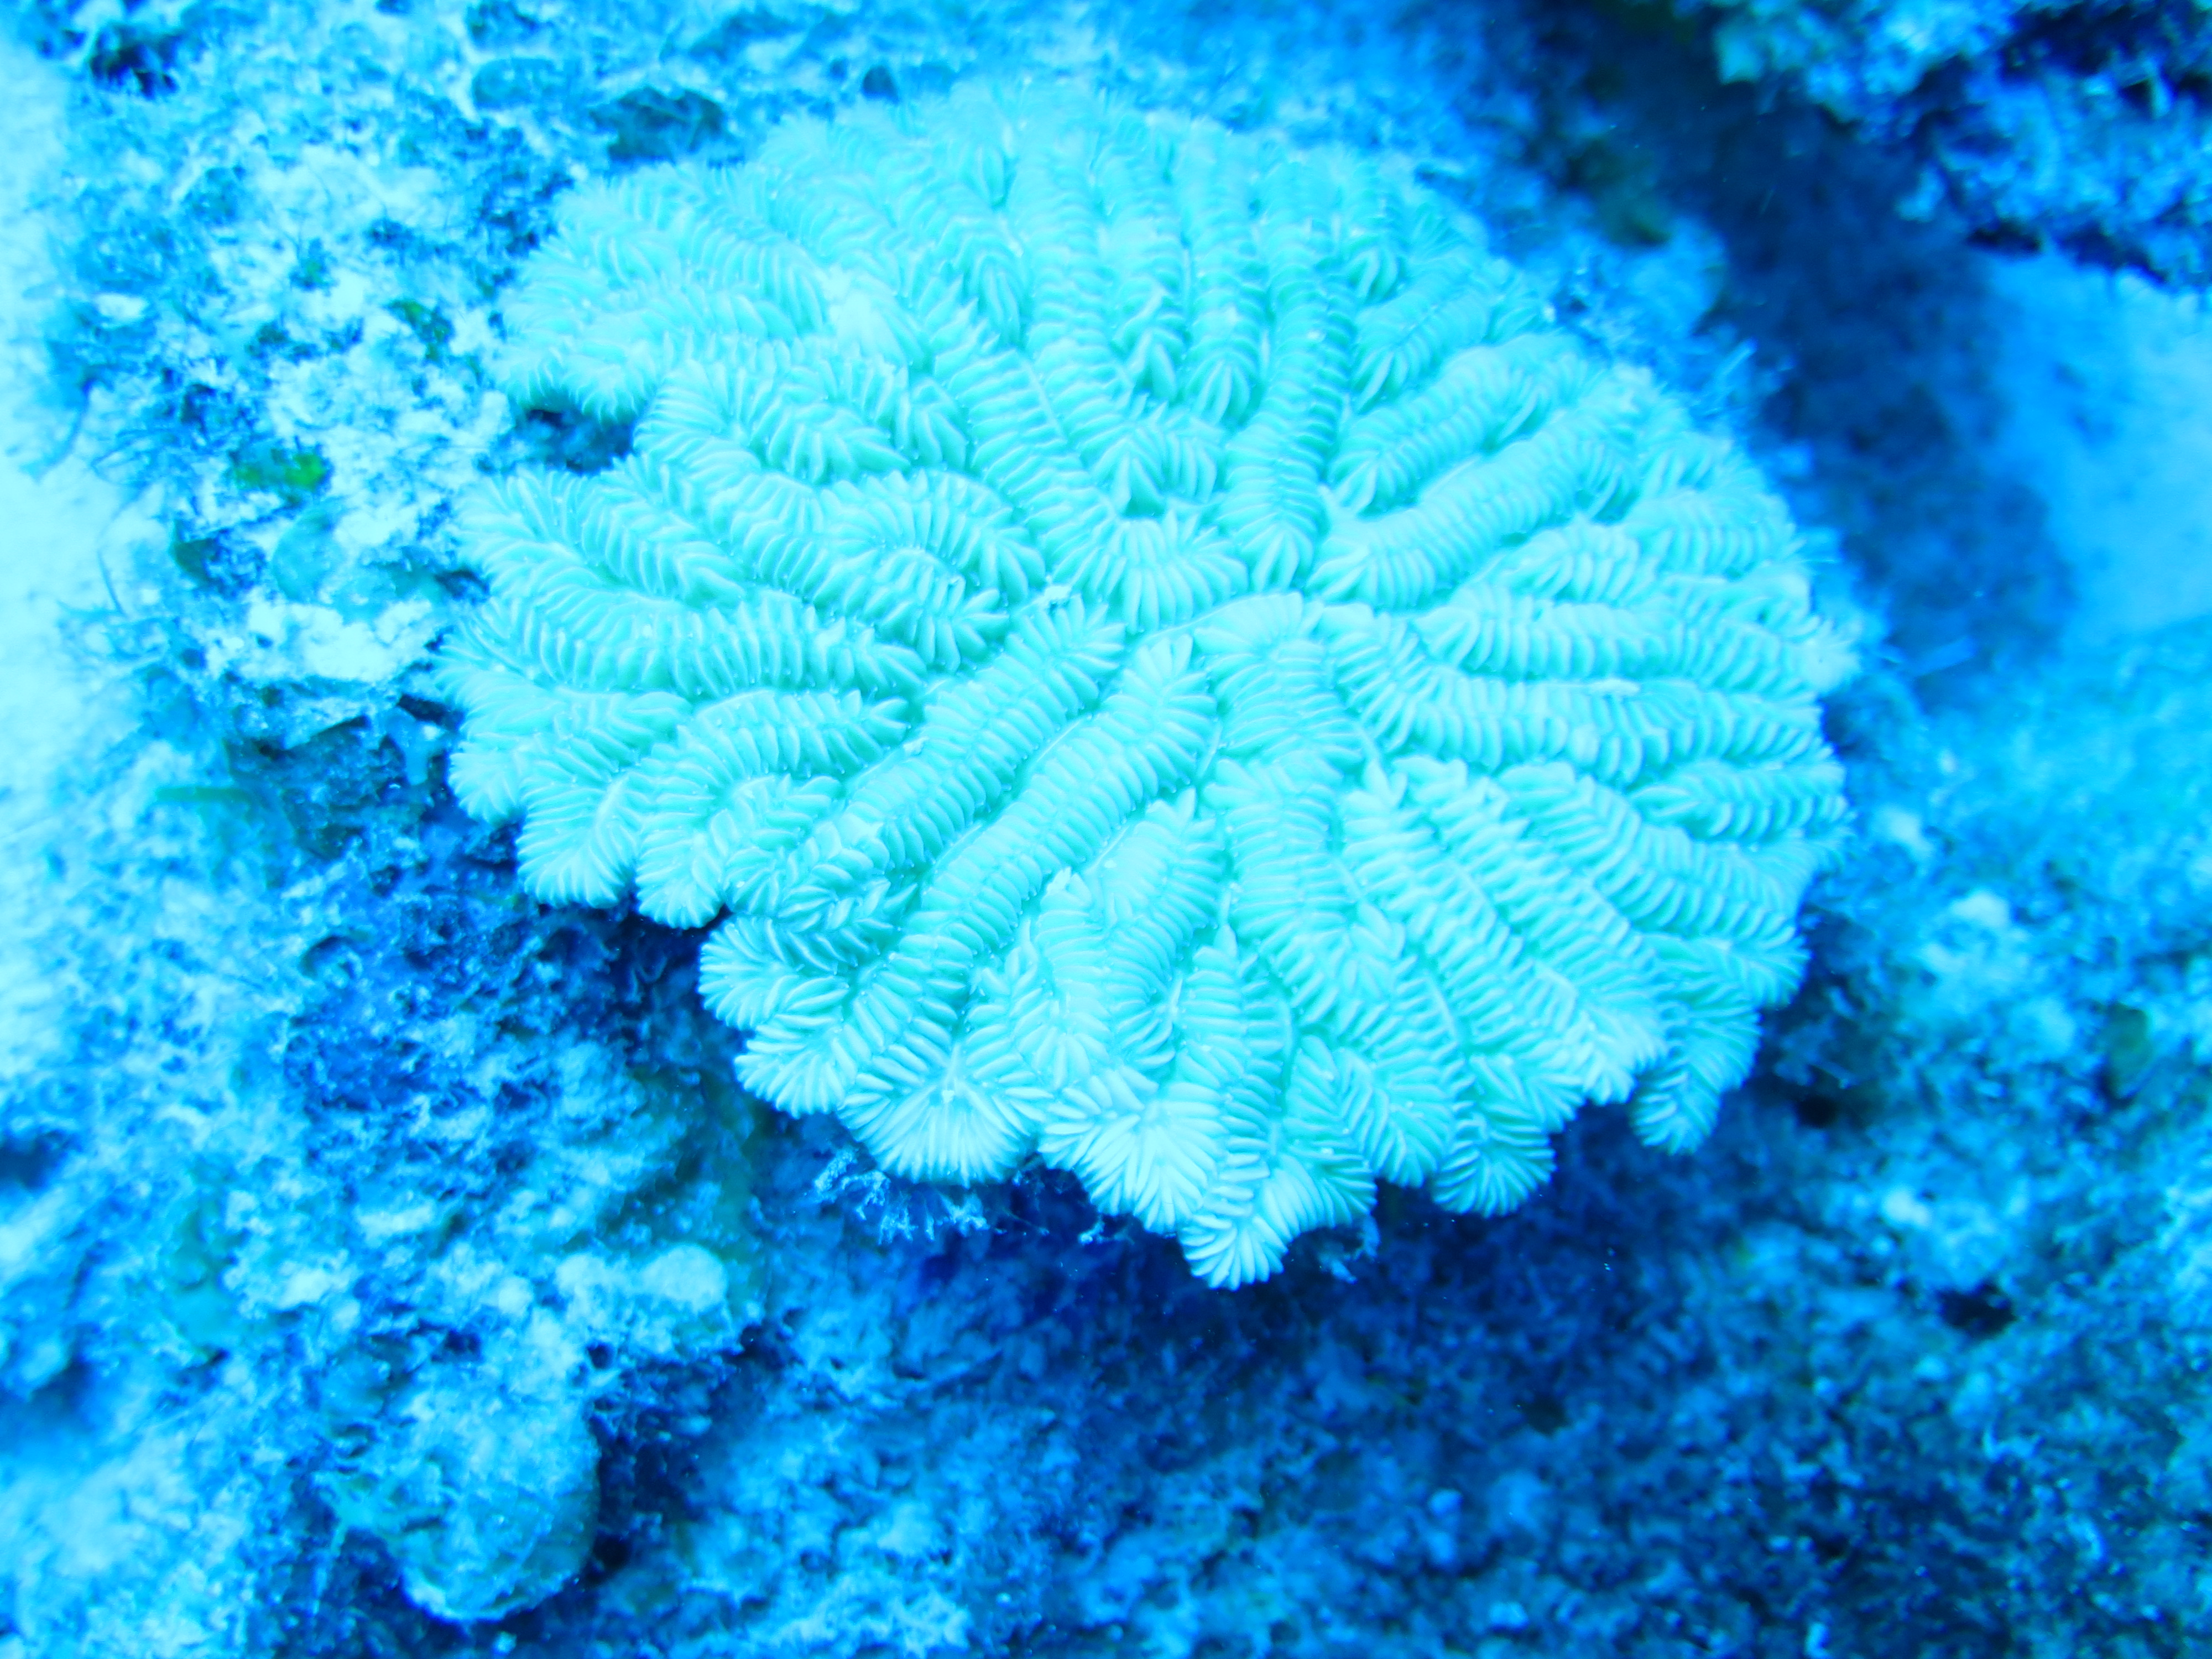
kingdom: Animalia
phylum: Cnidaria
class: Anthozoa
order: Scleractinia
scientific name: Scleractinia
